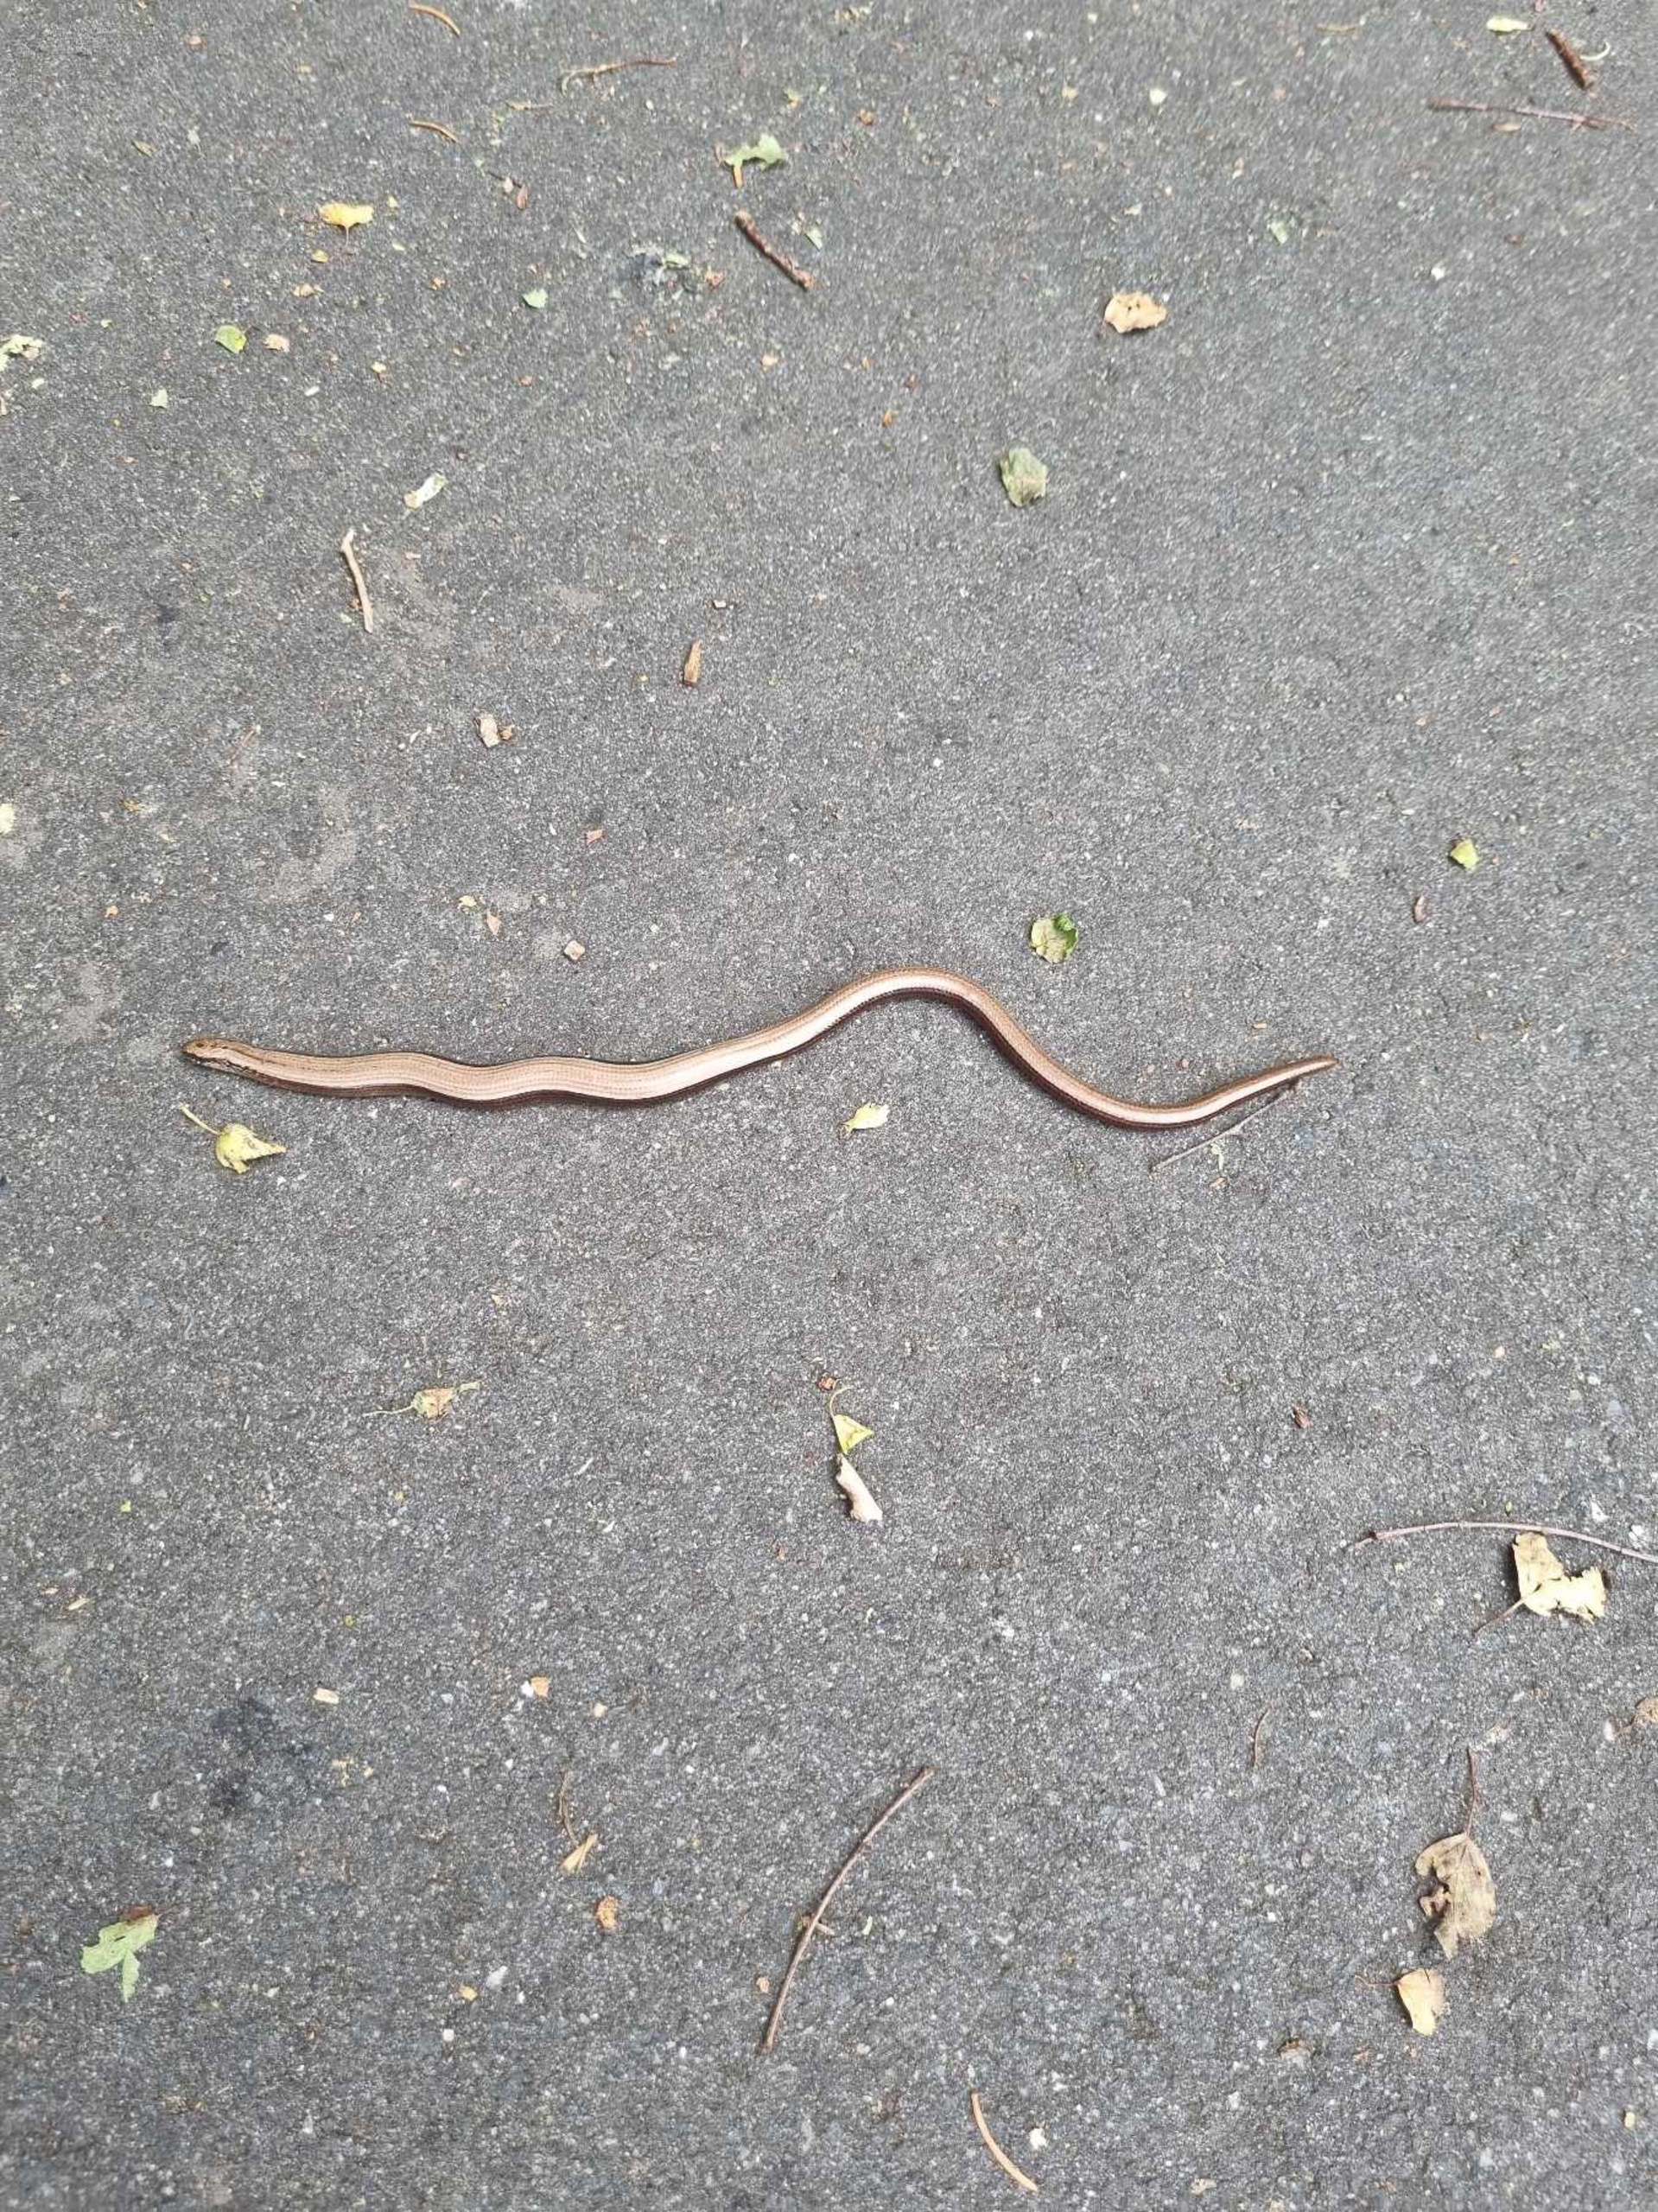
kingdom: Animalia
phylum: Chordata
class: Squamata
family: Anguidae
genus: Anguis
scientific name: Anguis fragilis
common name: Stålorm
